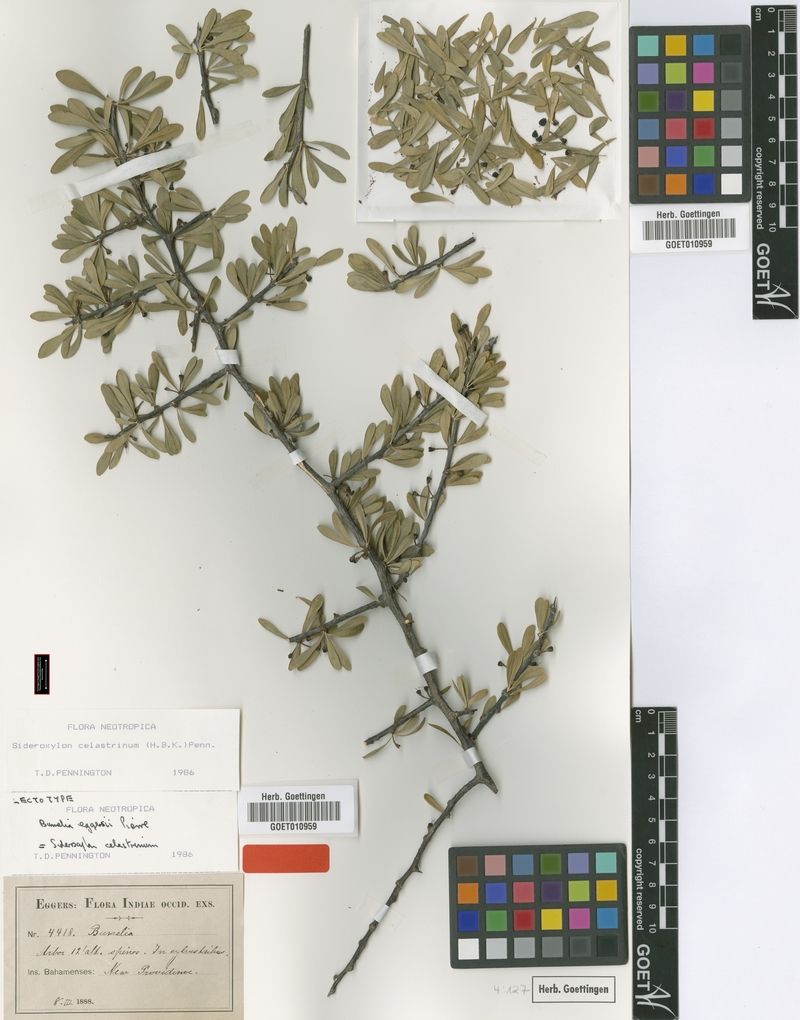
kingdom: Plantae
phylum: Tracheophyta
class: Magnoliopsida
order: Ericales
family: Sapotaceae
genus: Sideroxylon
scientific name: Sideroxylon celastrinum
